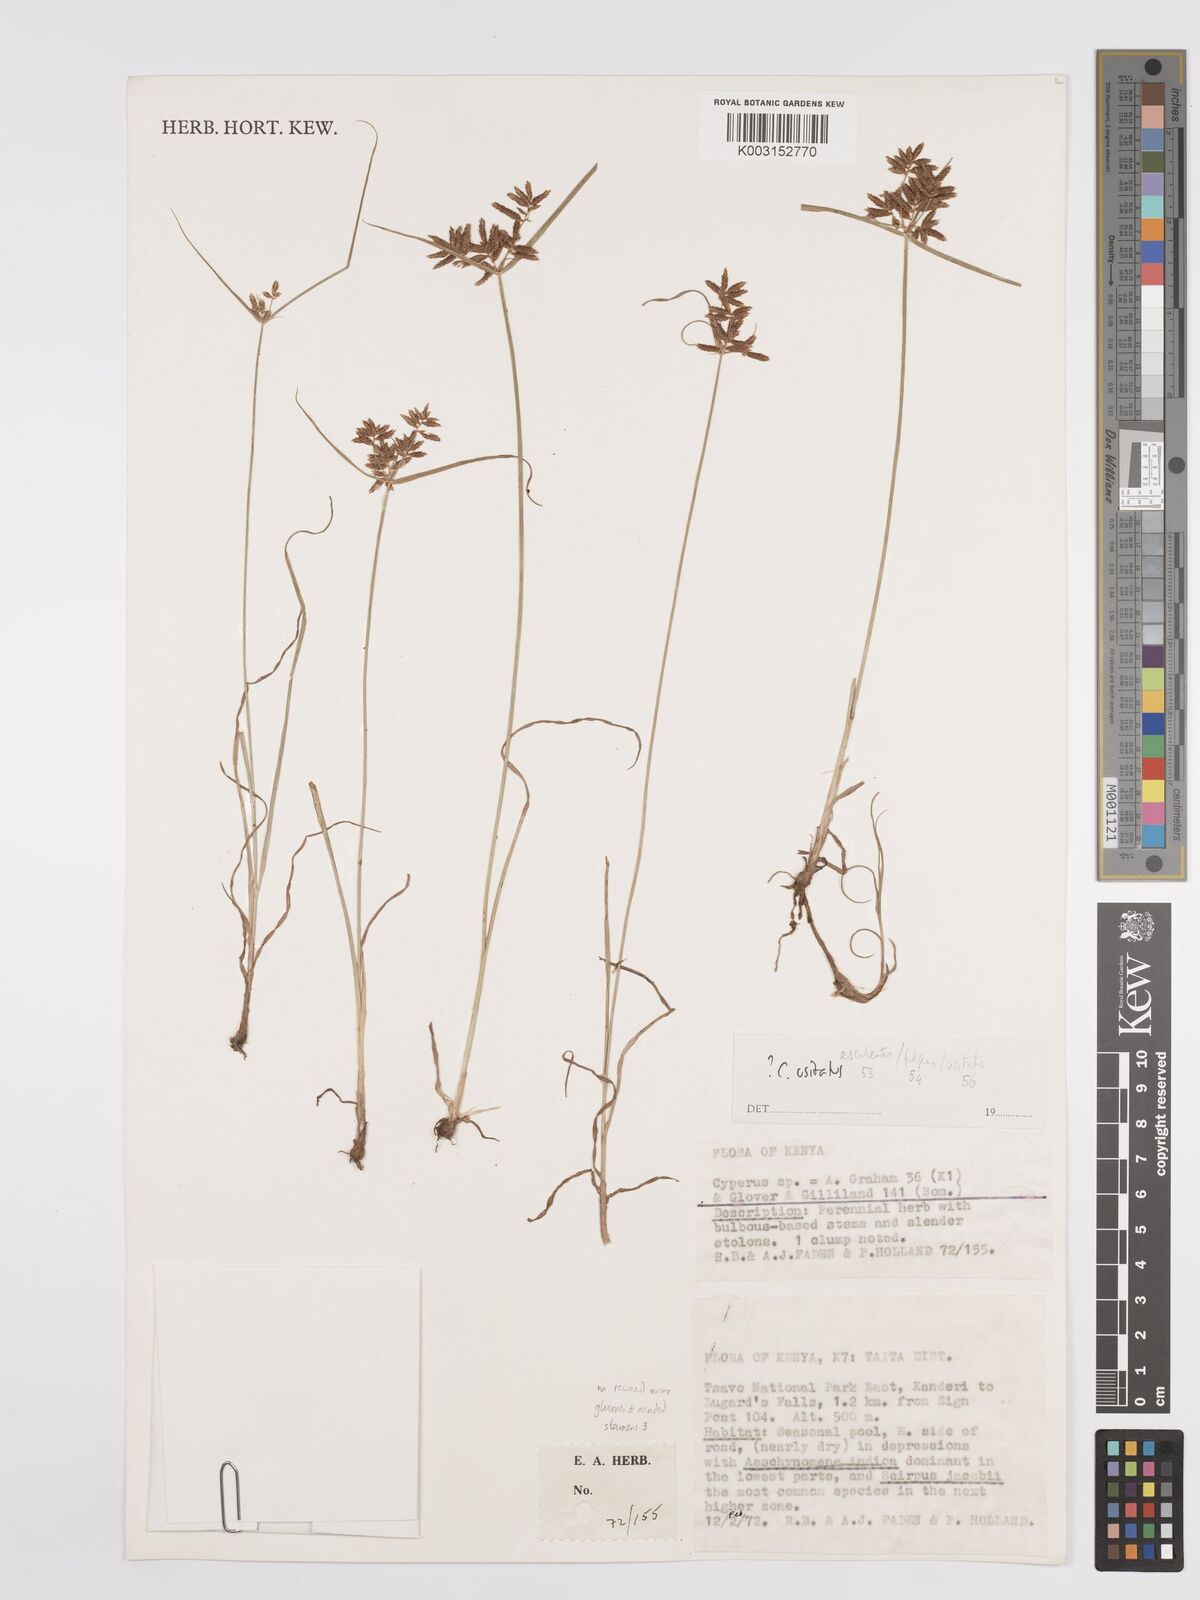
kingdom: Plantae
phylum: Tracheophyta
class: Liliopsida
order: Poales
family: Cyperaceae
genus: Cyperus
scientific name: Cyperus usitatus
